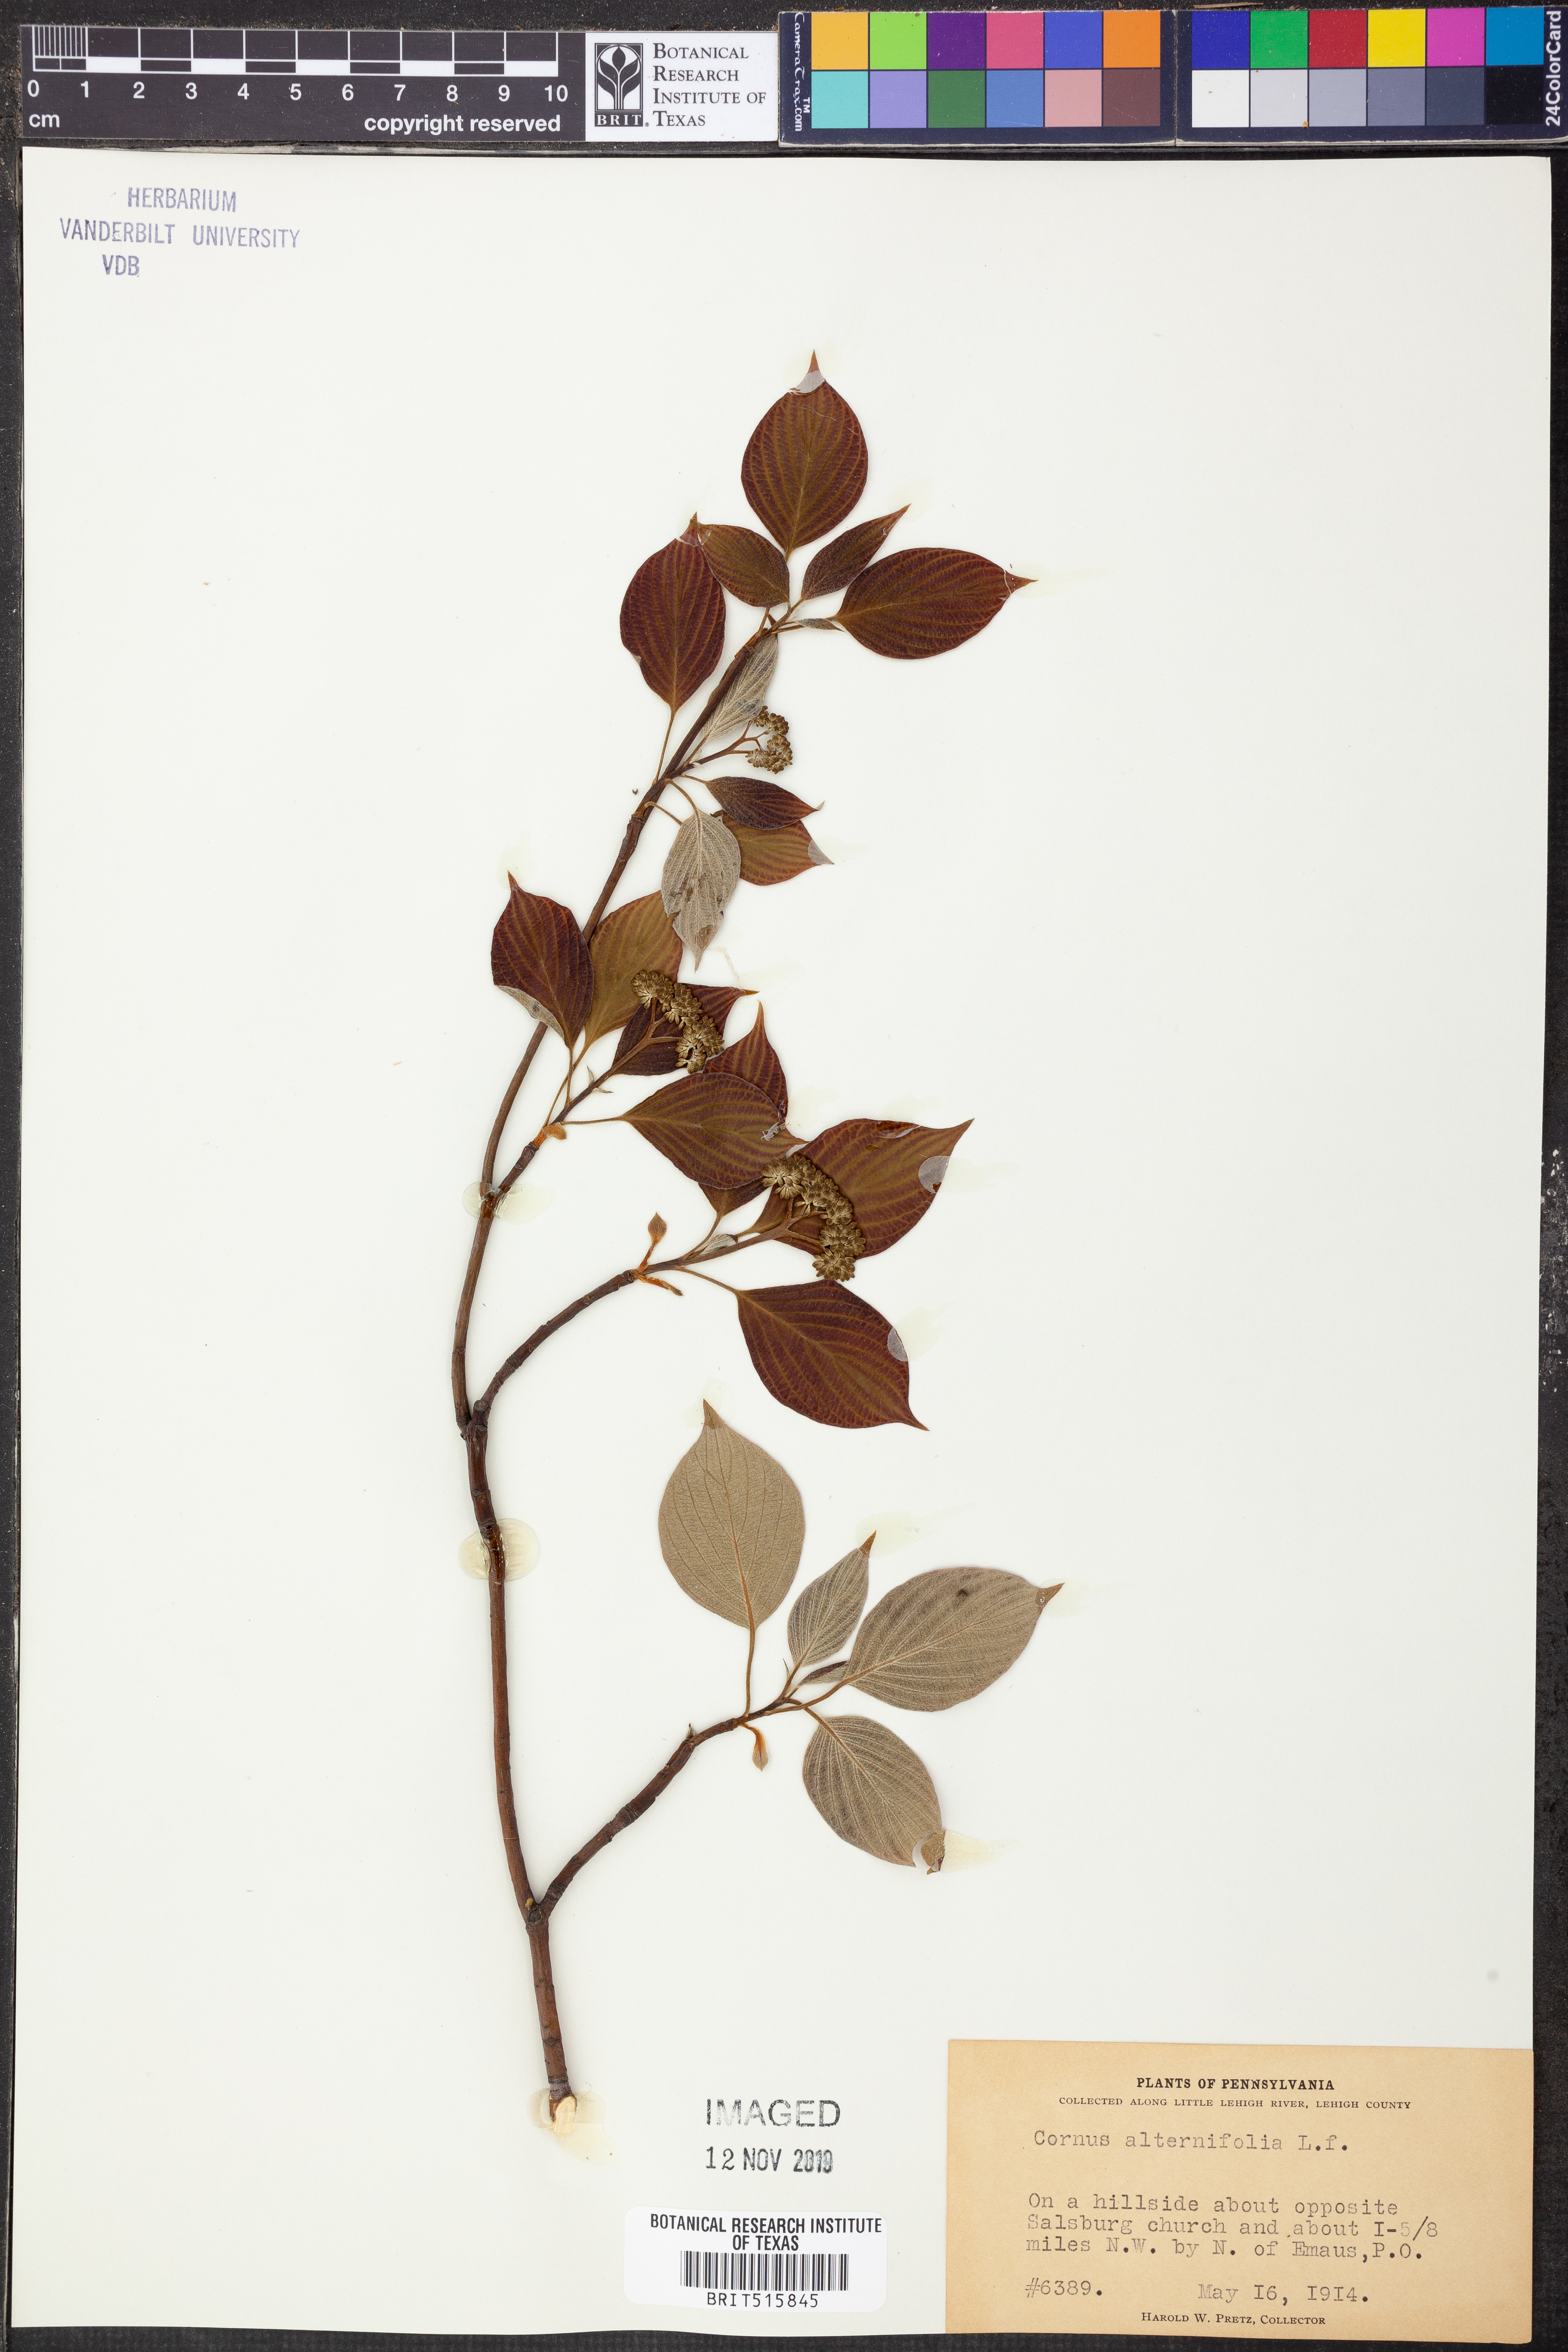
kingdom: Plantae
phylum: Tracheophyta
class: Magnoliopsida
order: Cornales
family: Cornaceae
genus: Cornus
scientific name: Cornus alternifolia
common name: Pagoda dogwood
